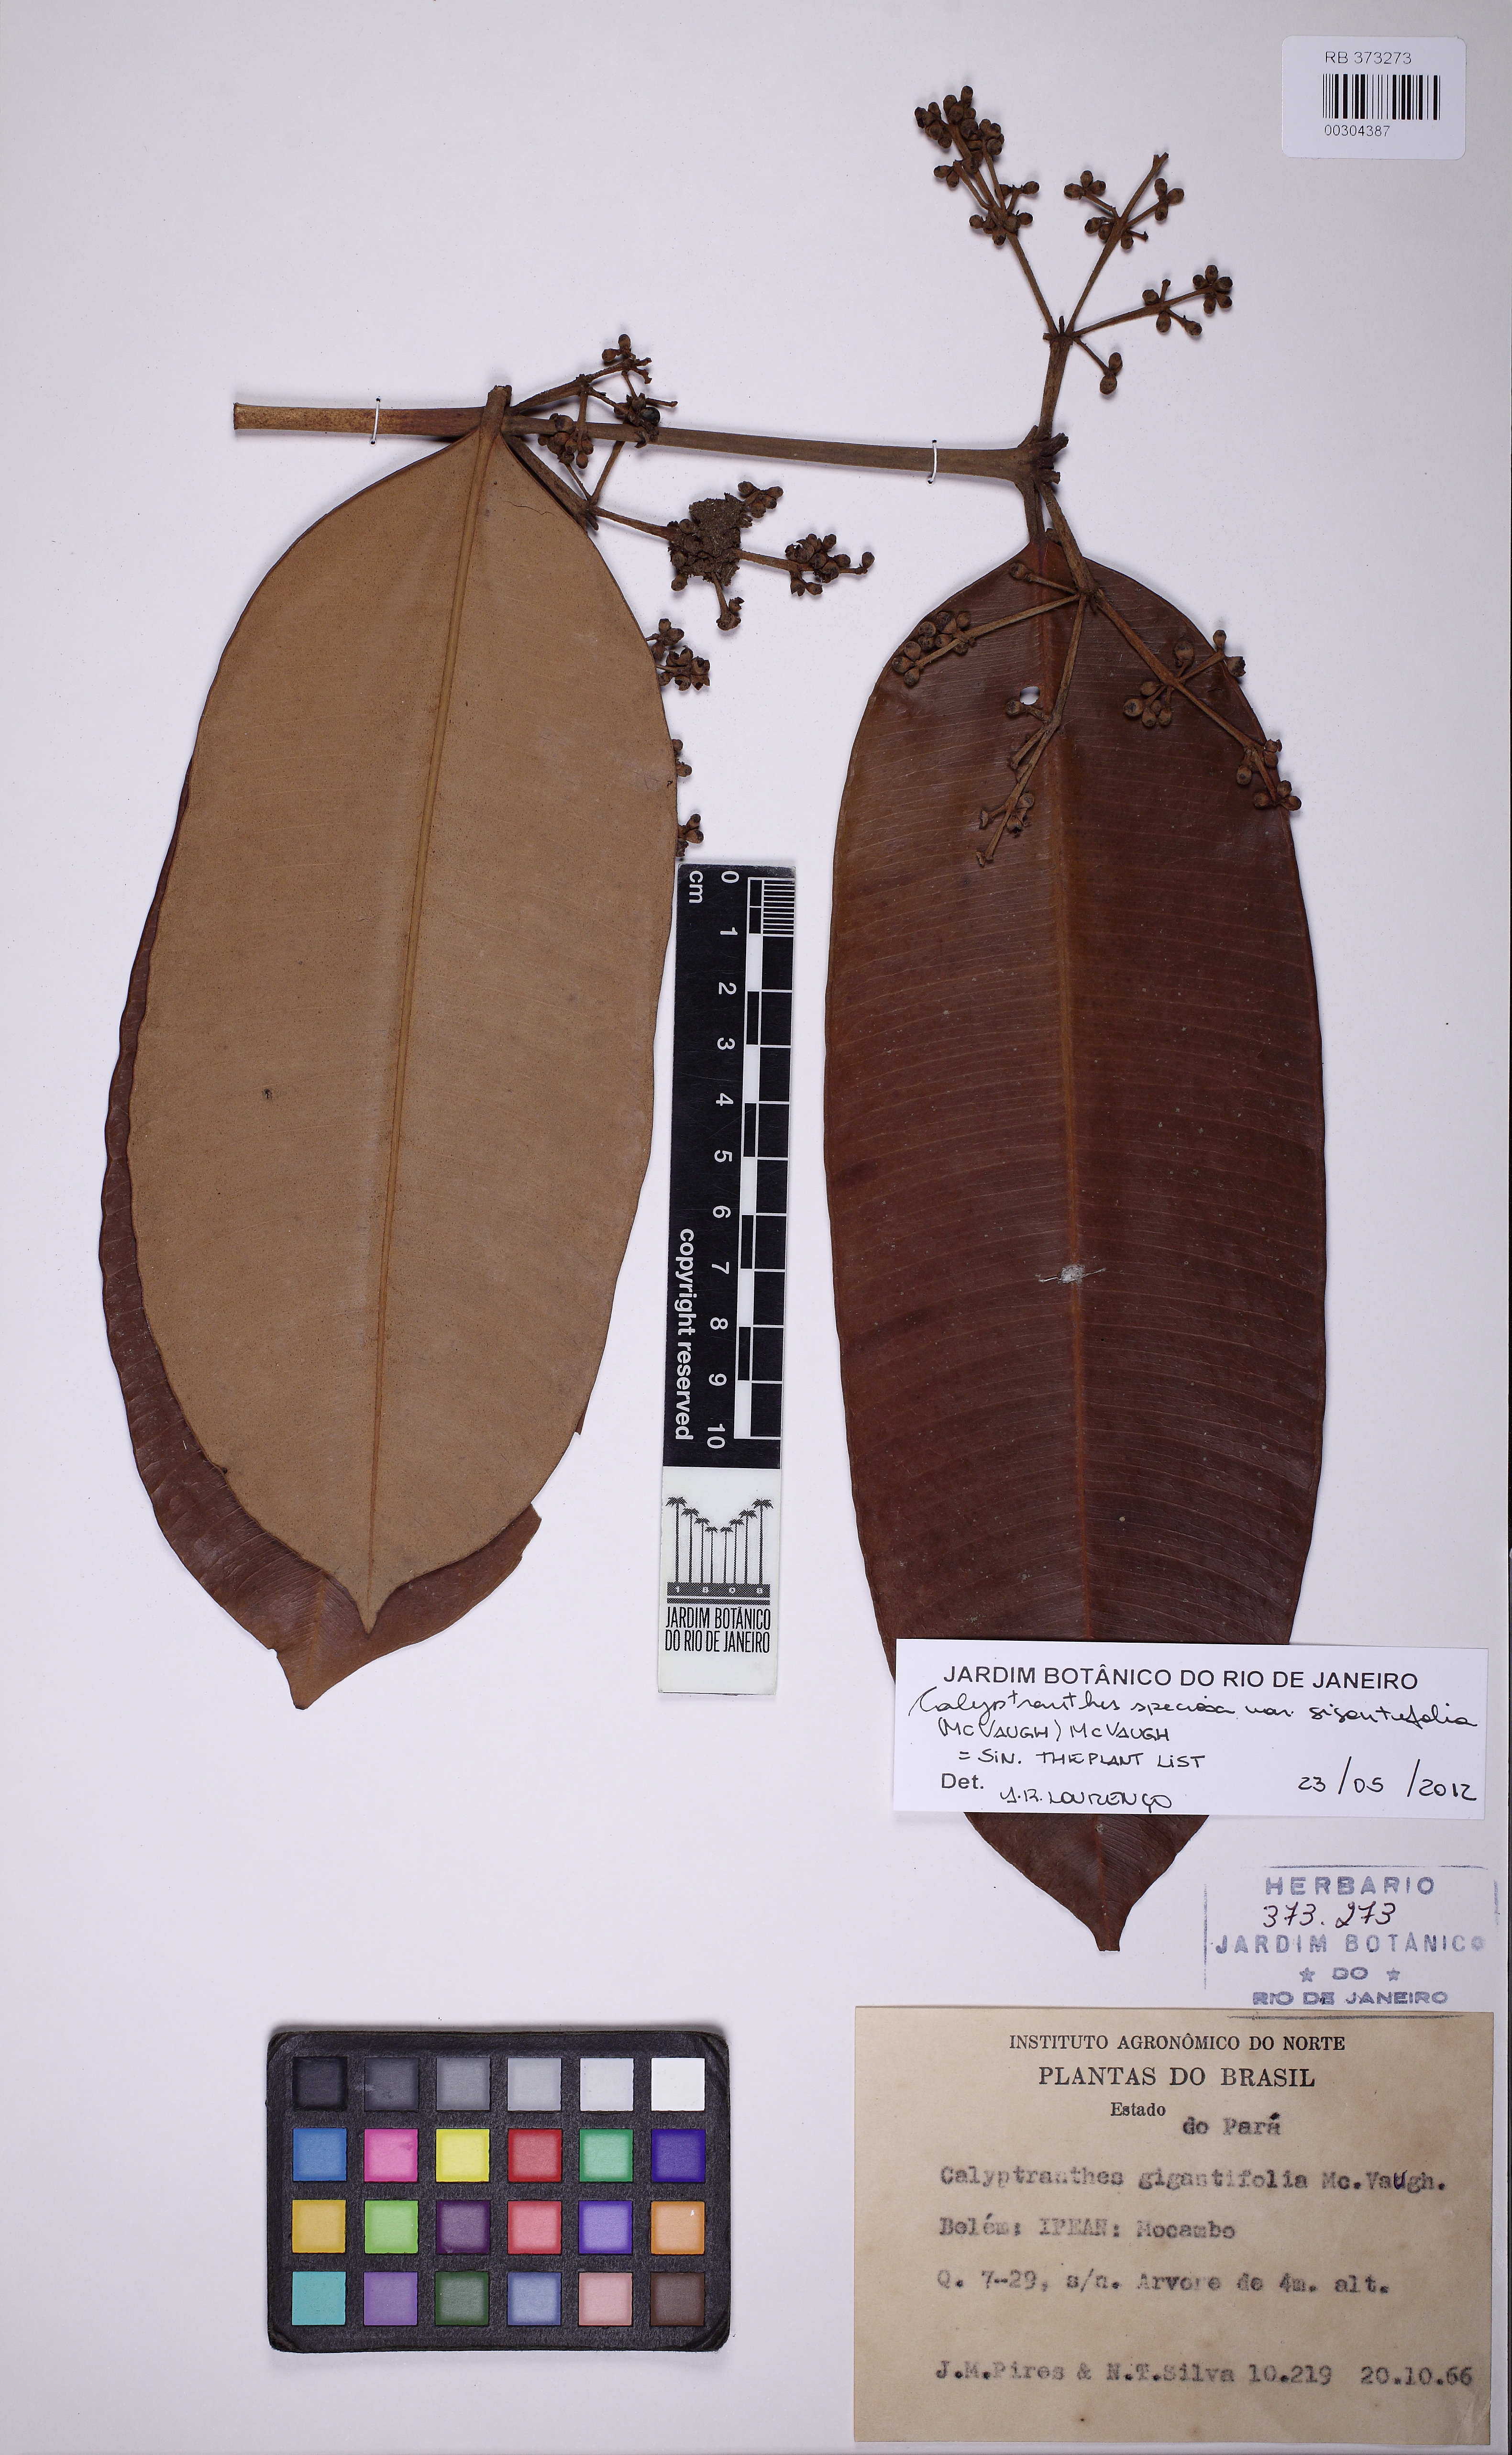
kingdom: Plantae
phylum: Tracheophyta
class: Magnoliopsida
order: Myrtales
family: Myrtaceae
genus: Myrcia
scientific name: Myrcia neospeciosa
